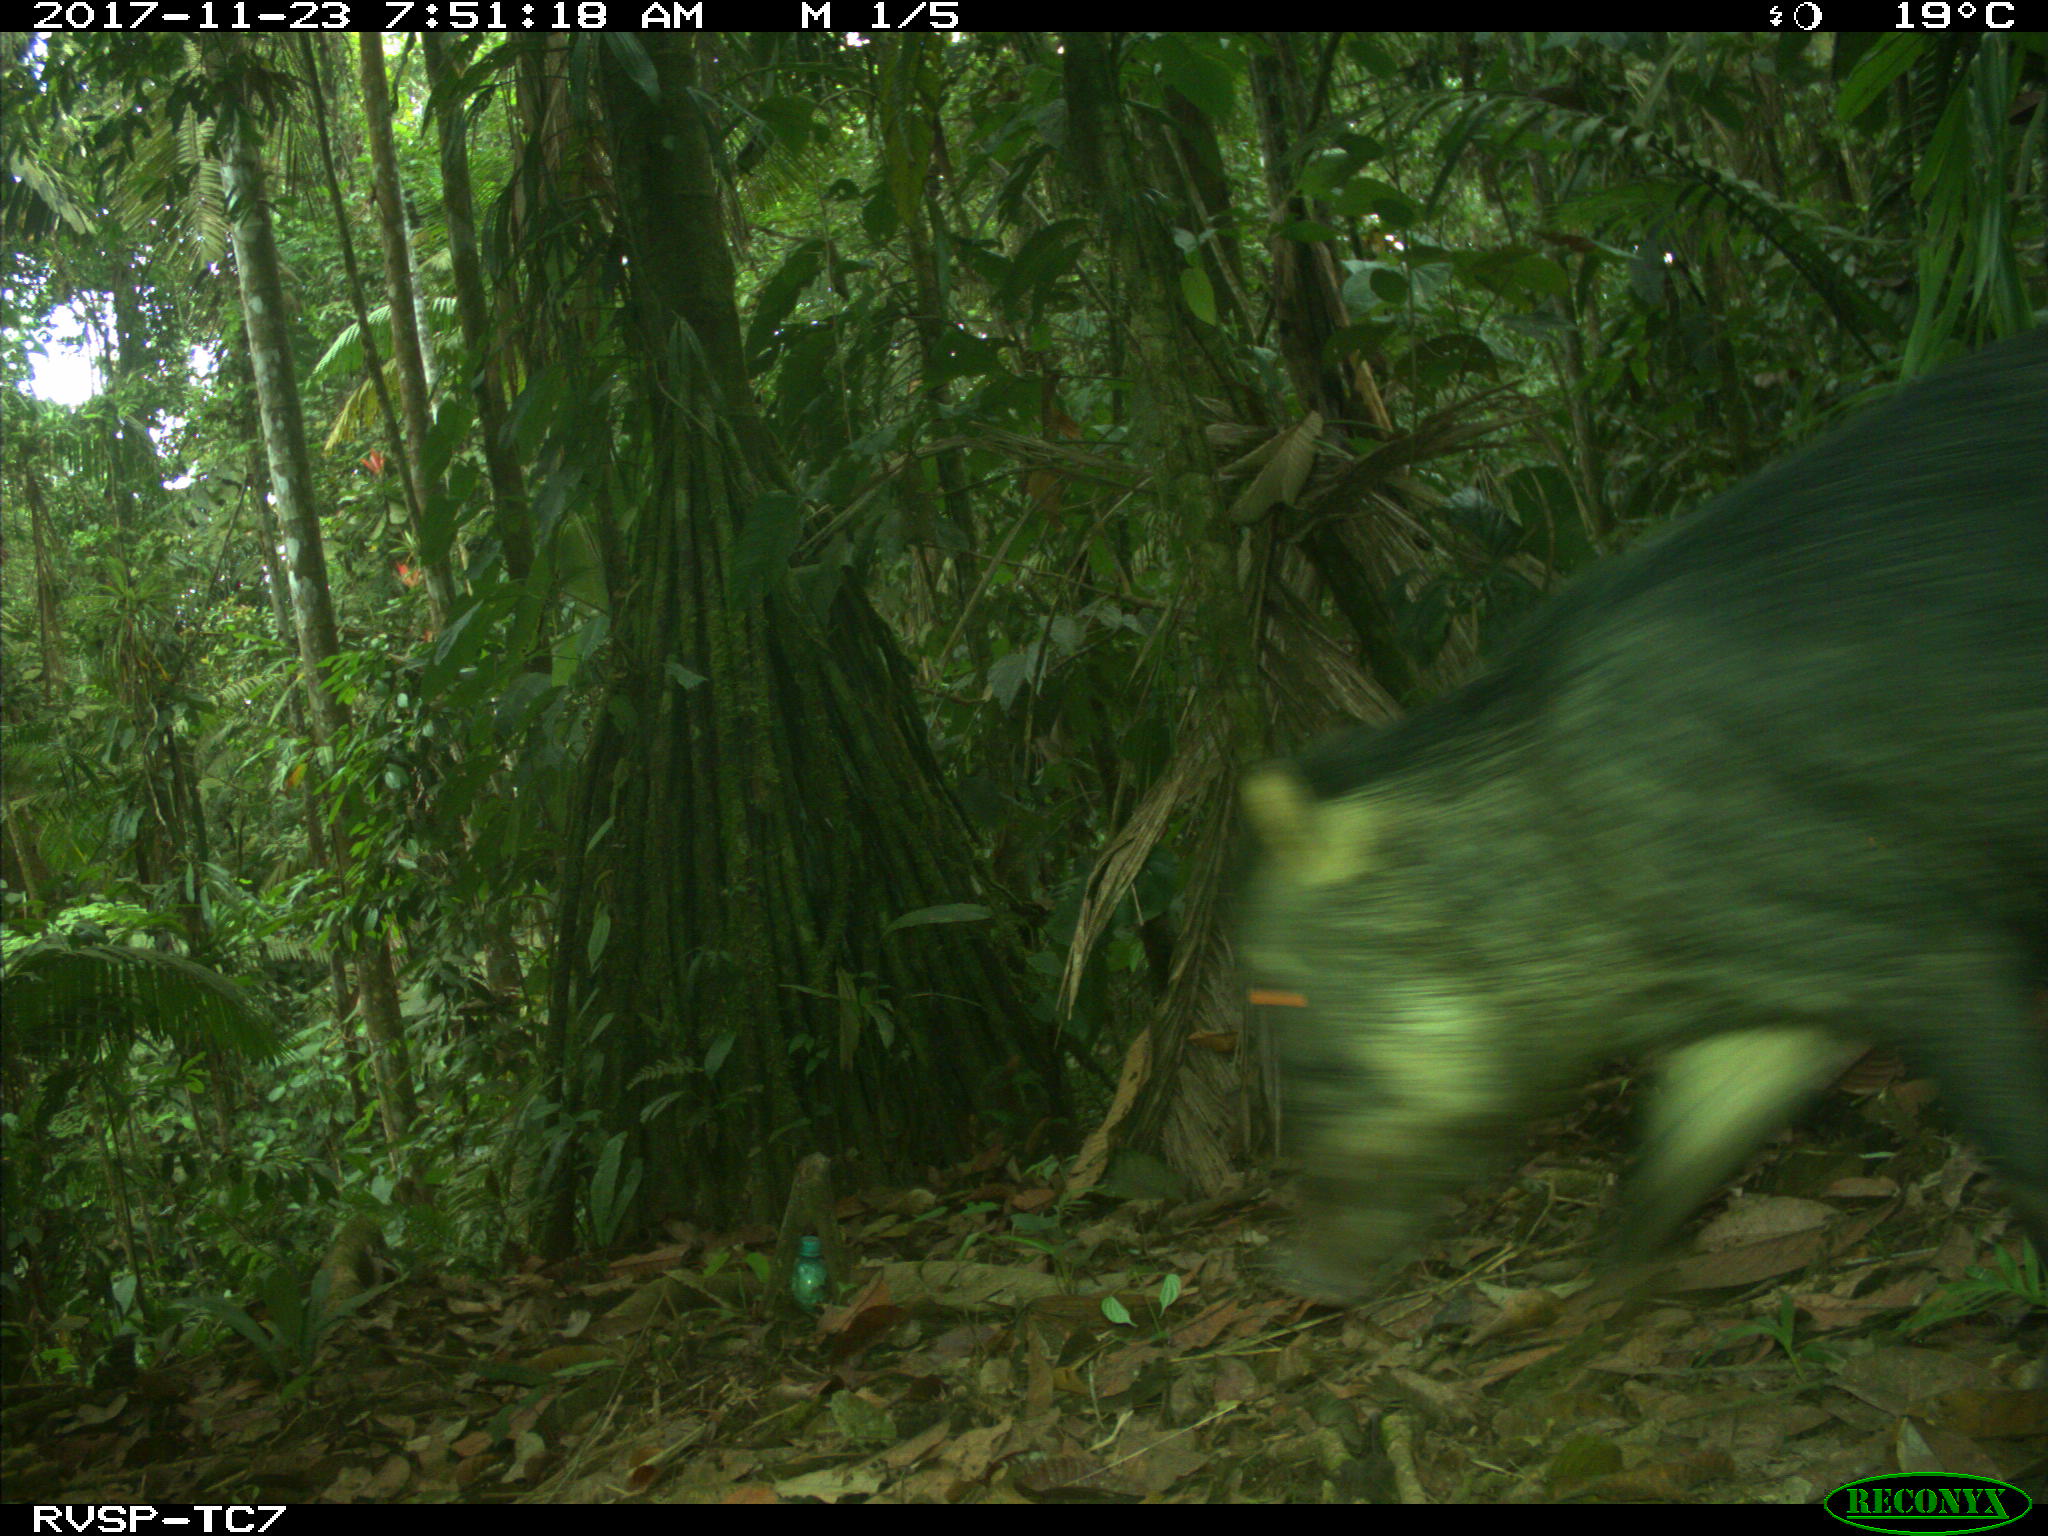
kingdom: Animalia
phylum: Chordata
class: Mammalia
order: Artiodactyla
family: Tayassuidae
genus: Tayassu
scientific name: Tayassu pecari
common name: White-lipped peccary
